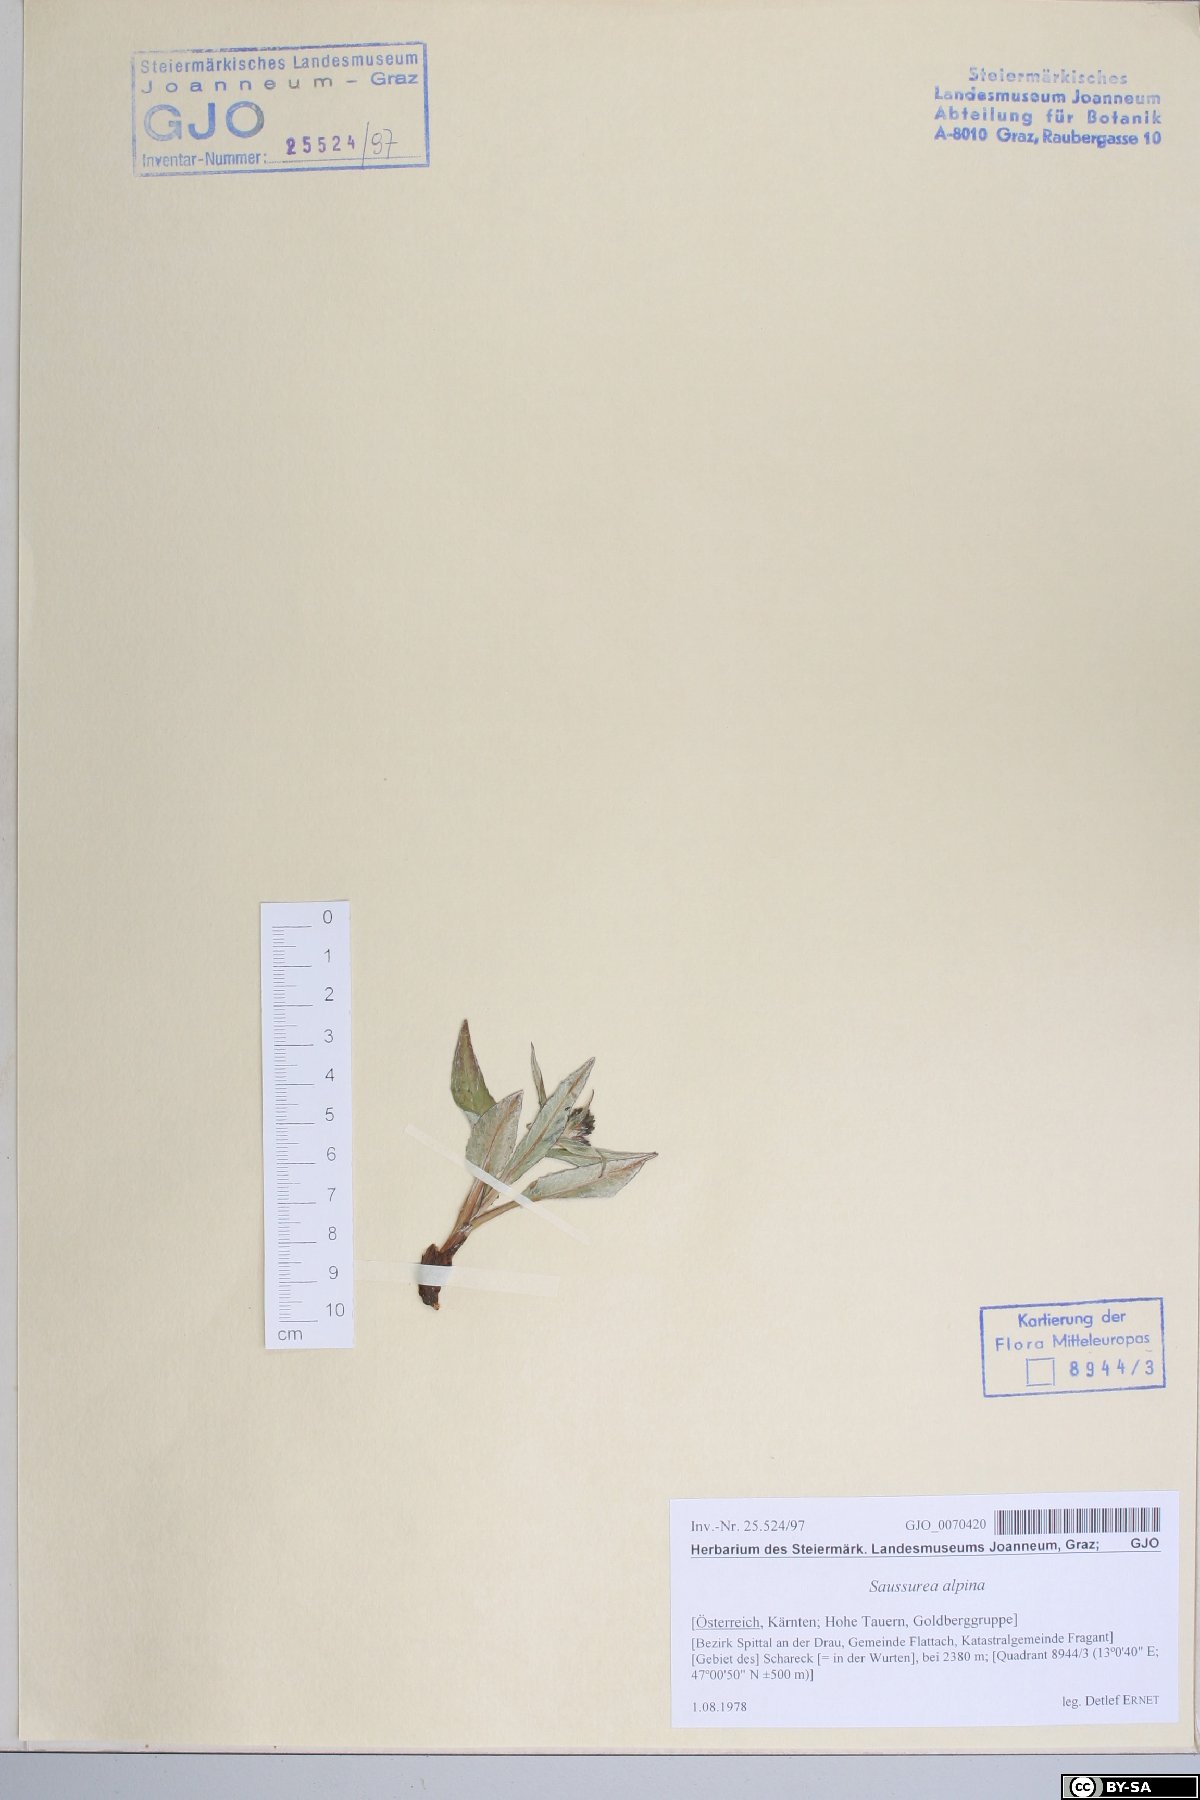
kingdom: Plantae
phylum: Tracheophyta
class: Magnoliopsida
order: Asterales
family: Asteraceae
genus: Saussurea
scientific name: Saussurea alpina
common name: Alpine saw-wort
